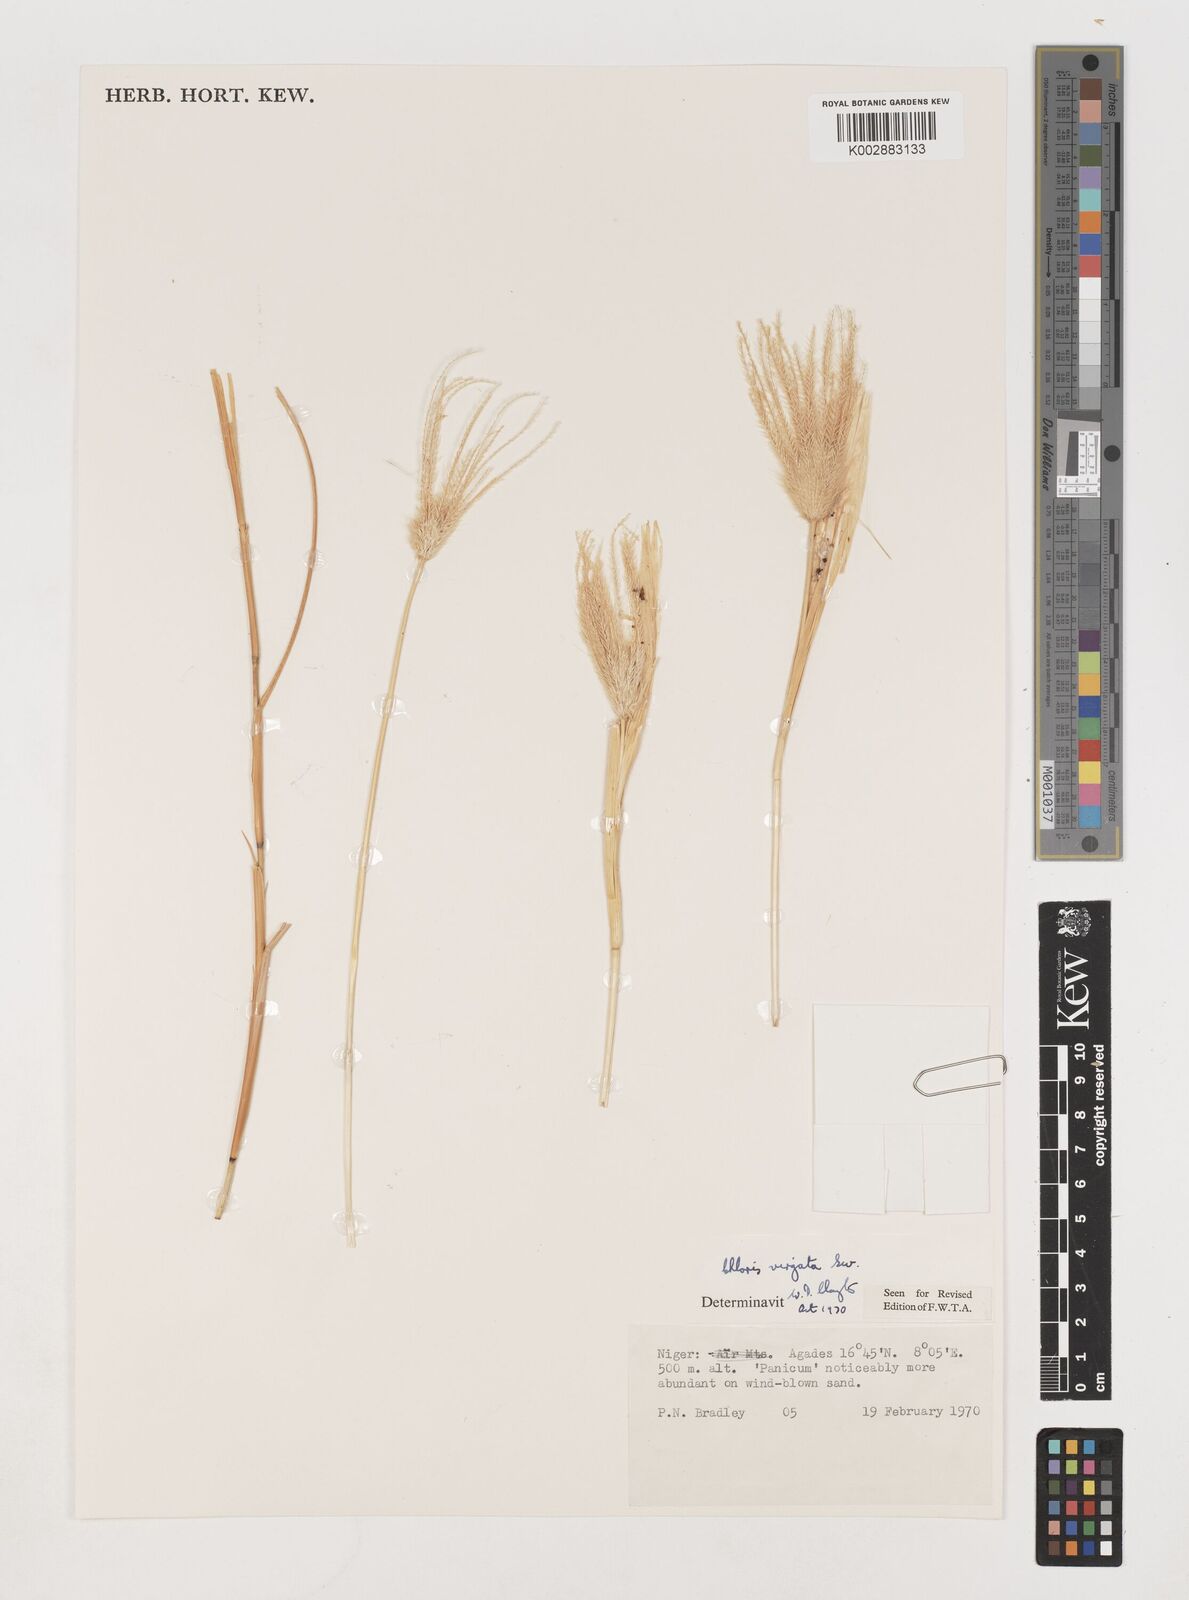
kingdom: Plantae
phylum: Tracheophyta
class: Liliopsida
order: Poales
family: Poaceae
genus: Chloris
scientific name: Chloris virgata
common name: Feathery rhodes-grass
